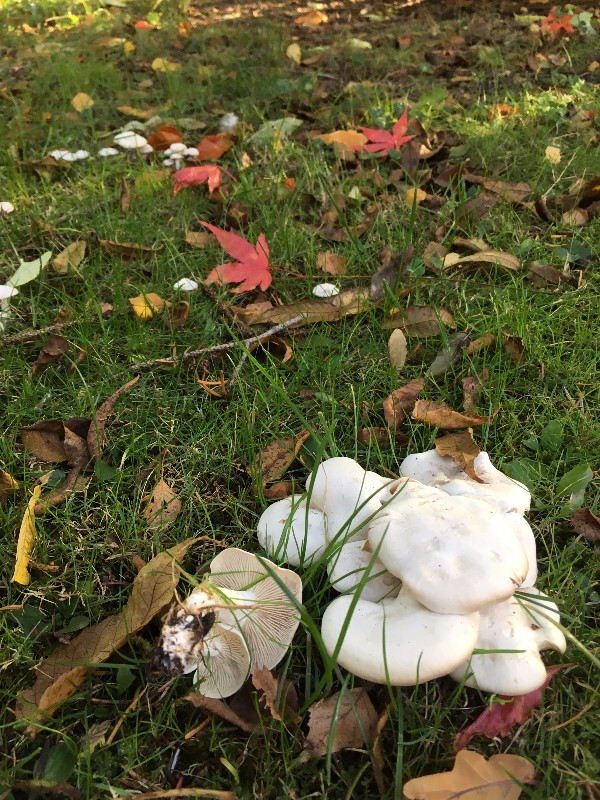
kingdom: Fungi
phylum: Basidiomycota
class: Agaricomycetes
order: Agaricales
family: Tricholomataceae
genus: Leucocybe
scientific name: Leucocybe connata
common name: knippe-tragthat
